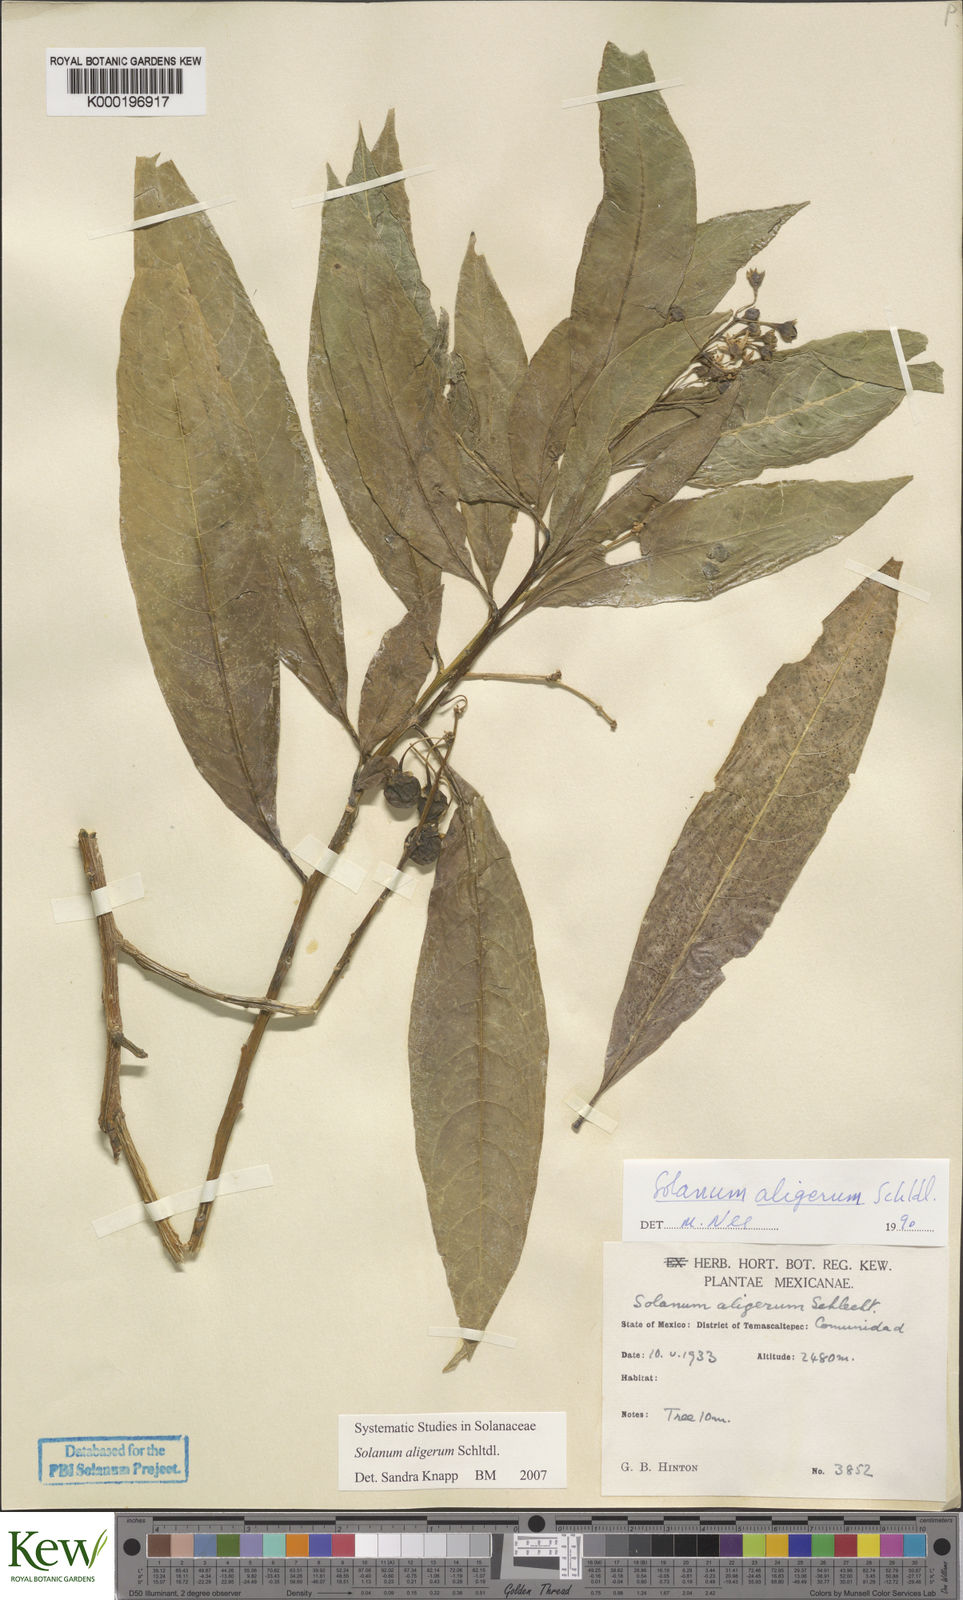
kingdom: Plantae
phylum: Tracheophyta
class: Magnoliopsida
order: Solanales
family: Solanaceae
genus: Solanum
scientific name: Solanum aligerum
